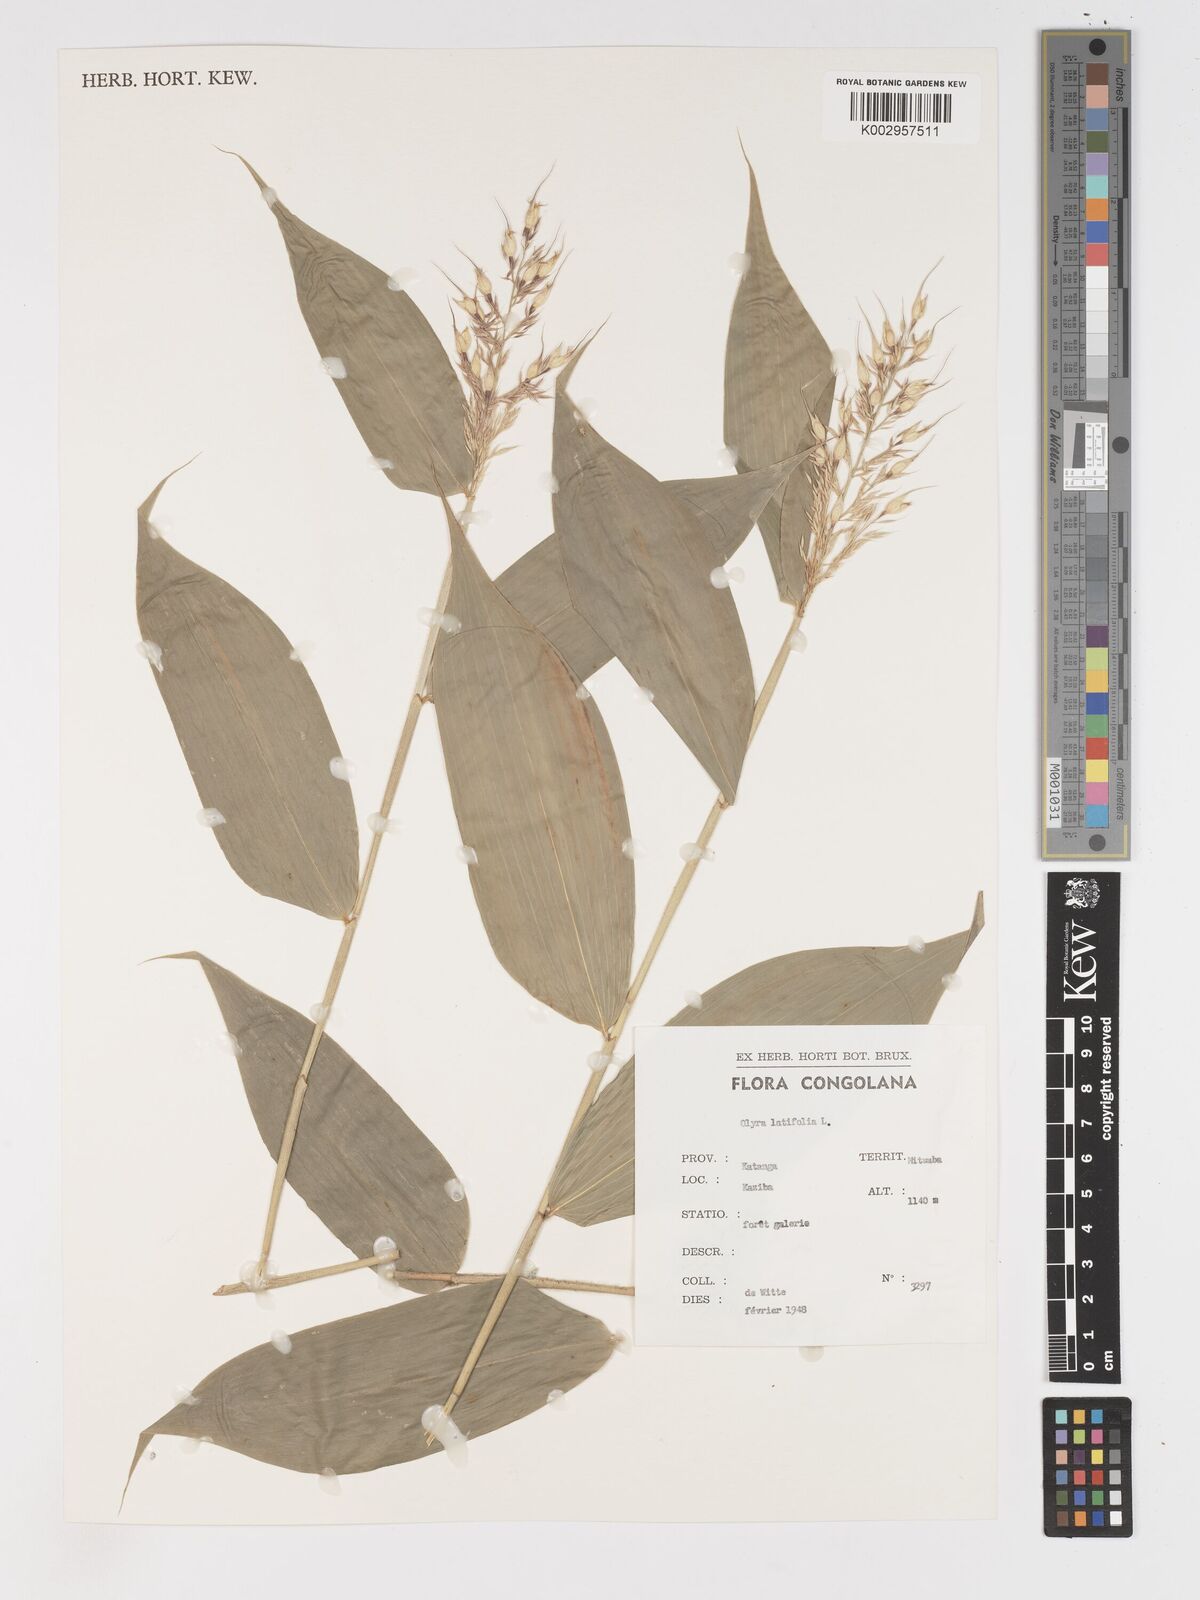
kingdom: Plantae
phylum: Tracheophyta
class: Liliopsida
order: Poales
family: Poaceae
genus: Olyra
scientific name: Olyra latifolia
